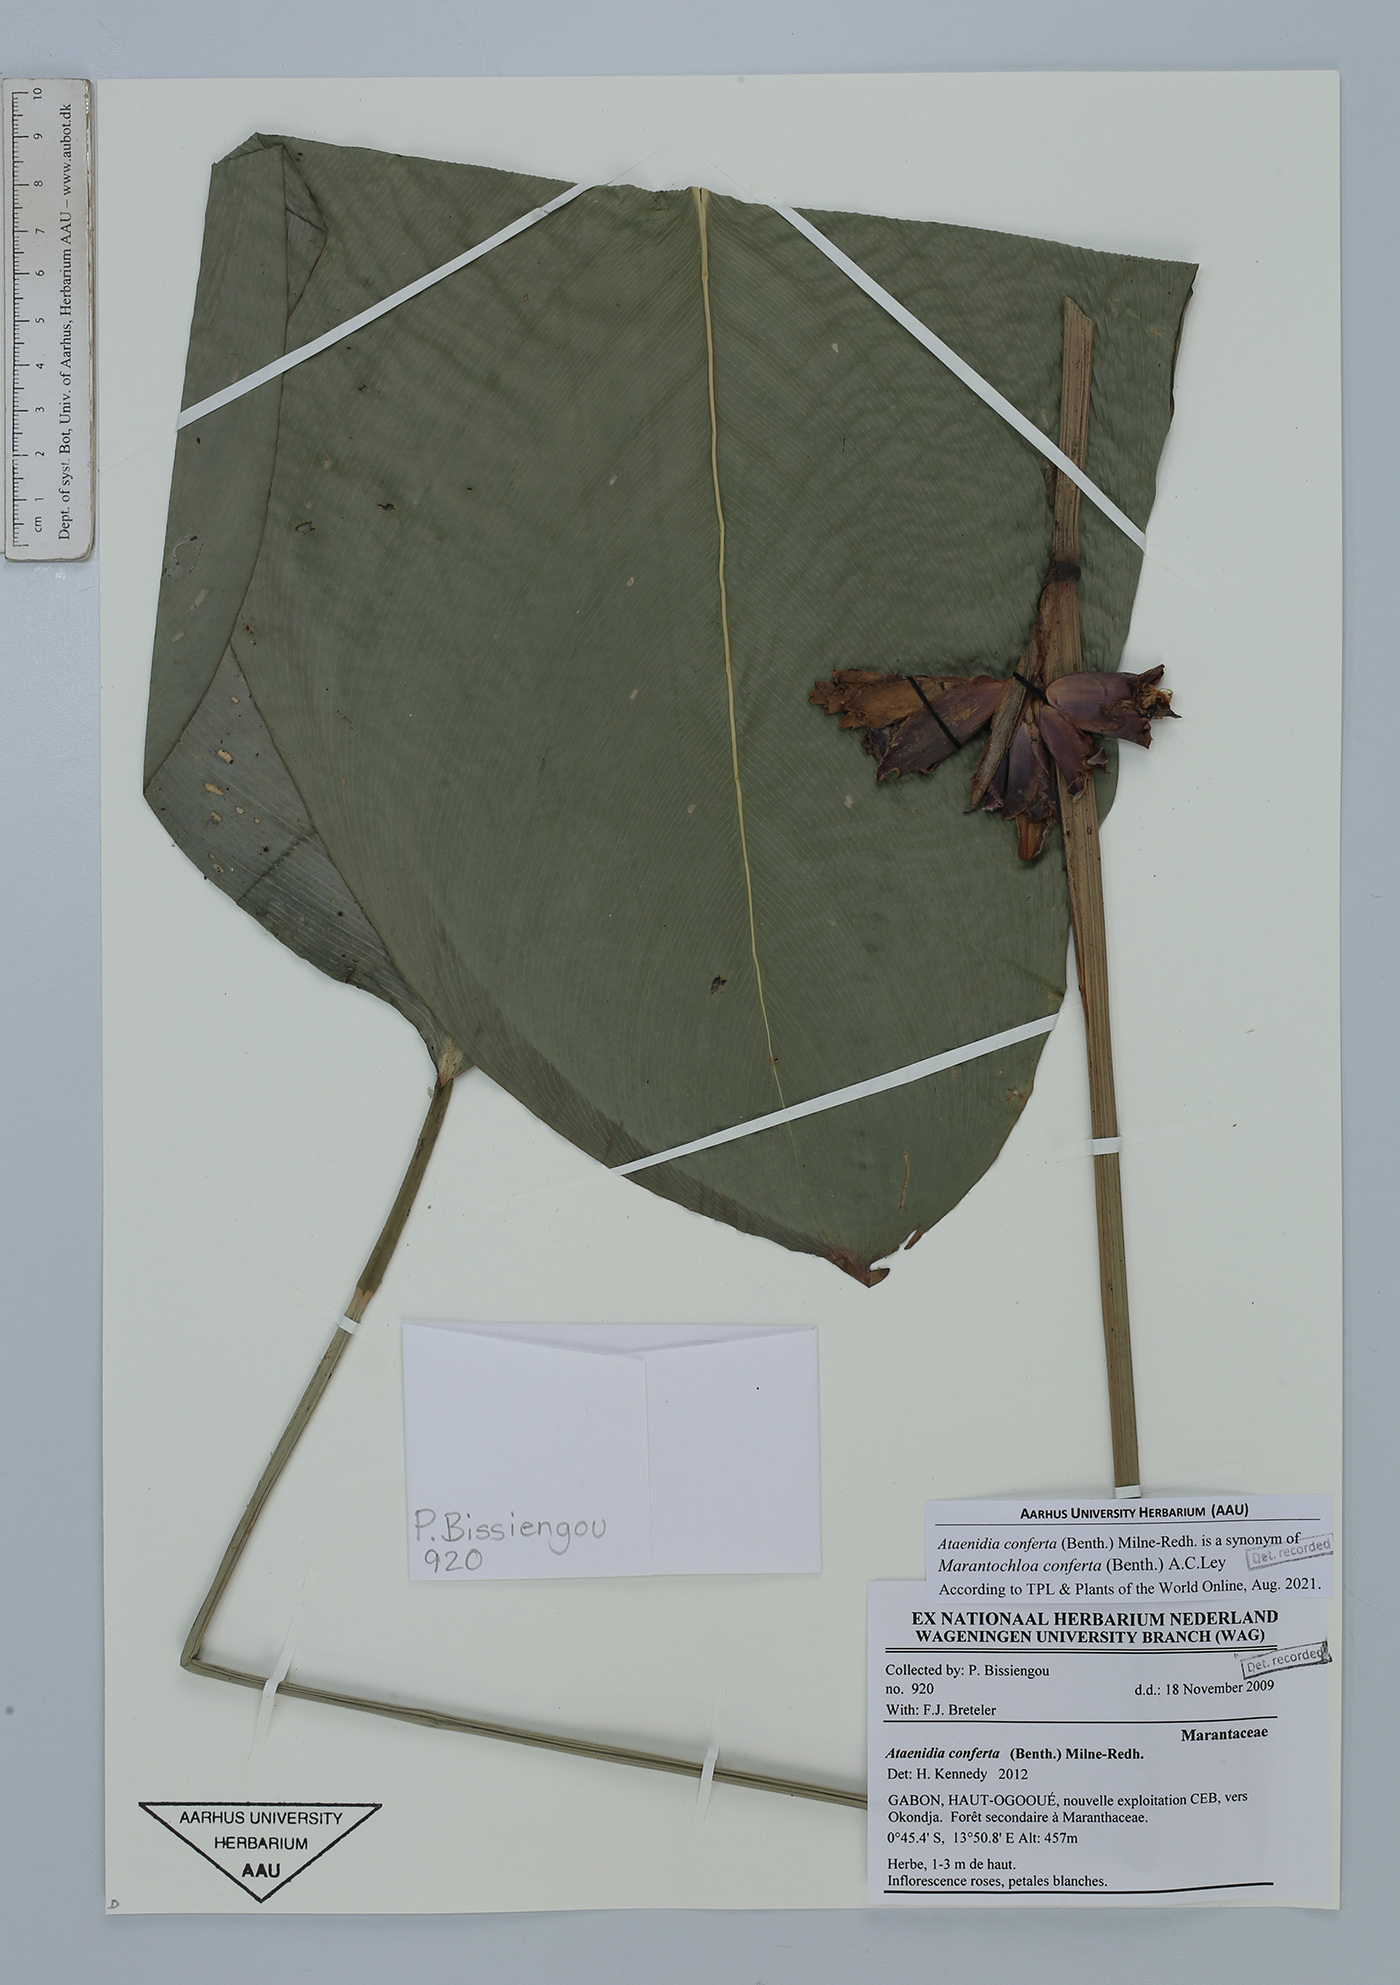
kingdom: Plantae
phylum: Tracheophyta
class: Liliopsida
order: Zingiberales
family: Marantaceae
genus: Marantochloa
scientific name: Marantochloa conferta
